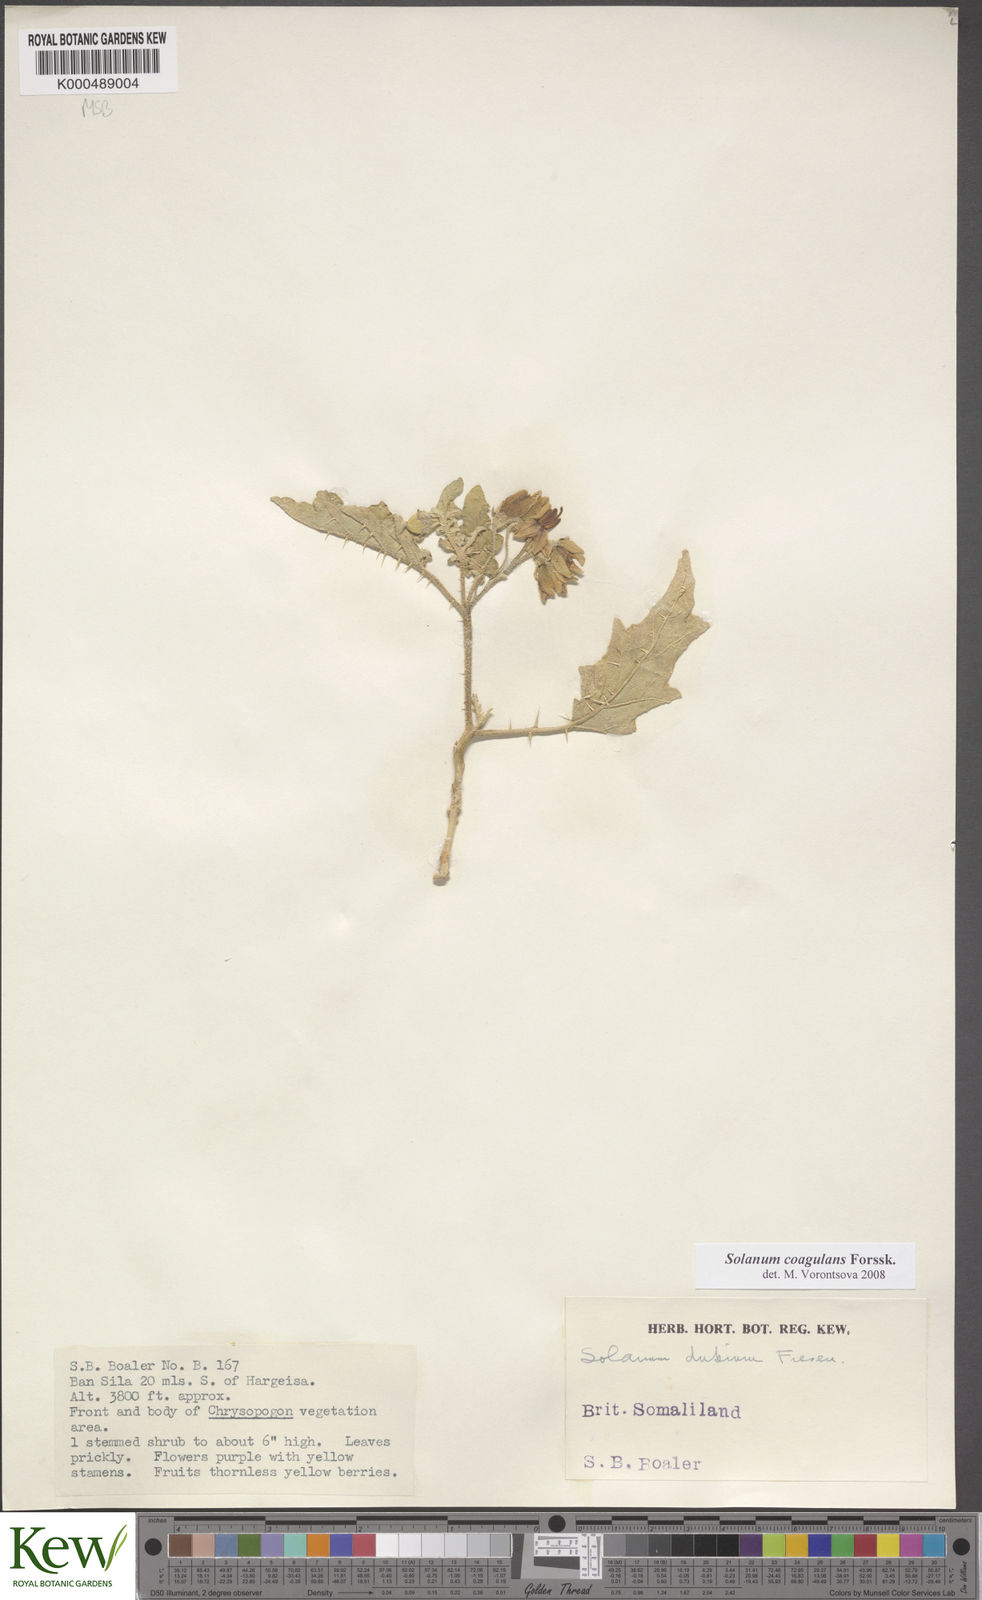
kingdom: Plantae
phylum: Tracheophyta
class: Magnoliopsida
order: Solanales
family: Solanaceae
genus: Solanum
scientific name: Solanum coagulans
